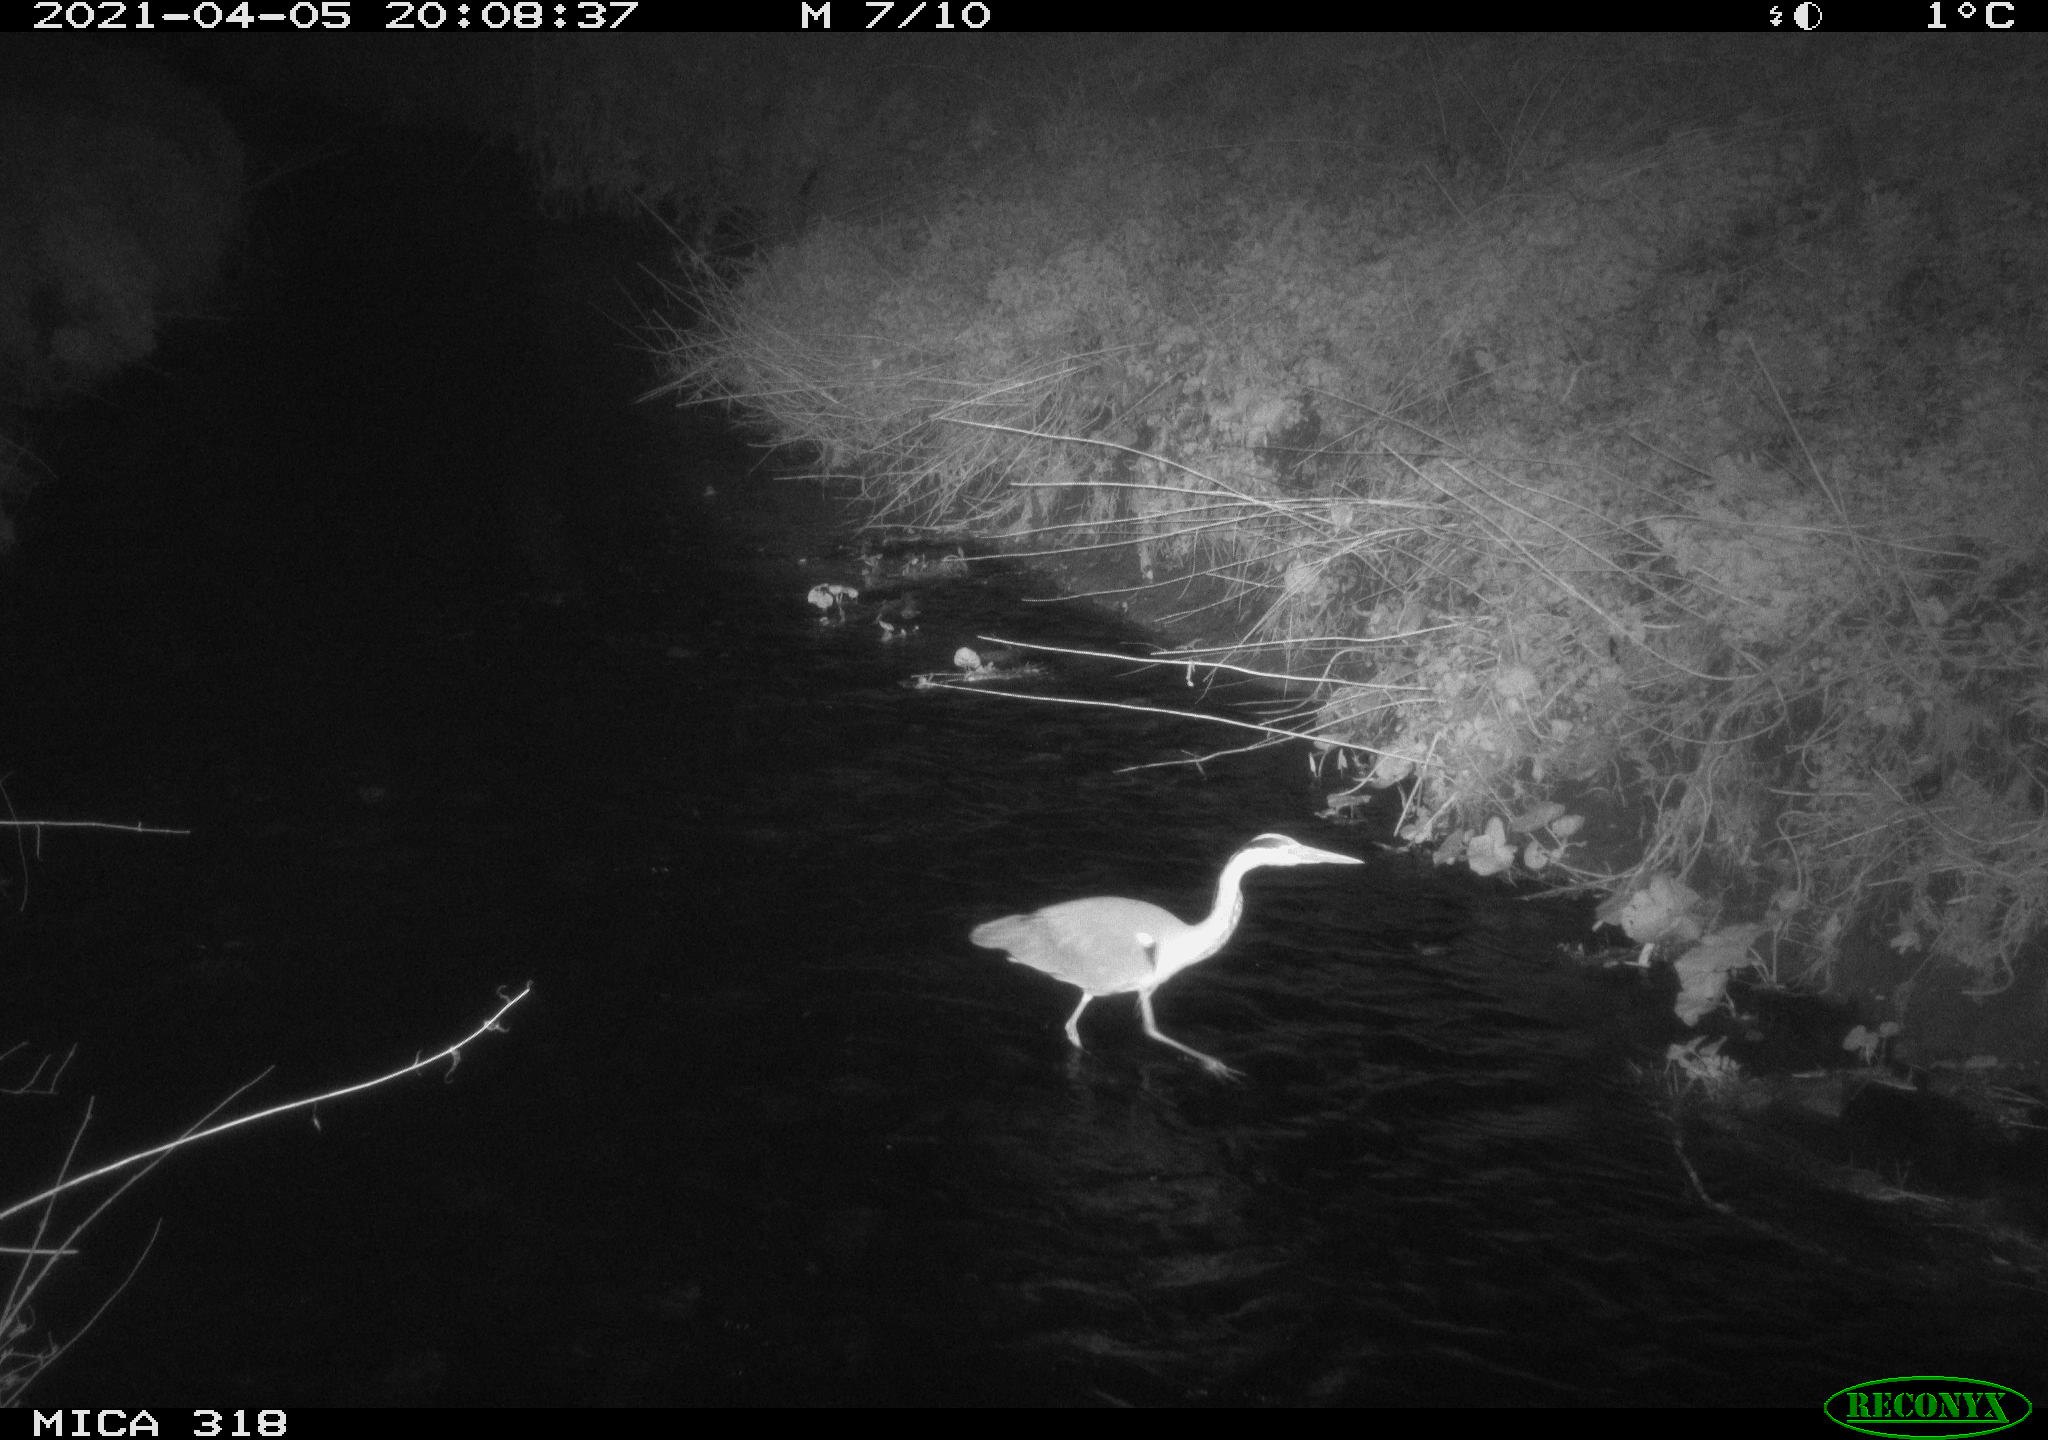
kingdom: Animalia
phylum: Chordata
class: Aves
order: Pelecaniformes
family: Ardeidae
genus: Ardea
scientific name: Ardea cinerea
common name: Grey heron
